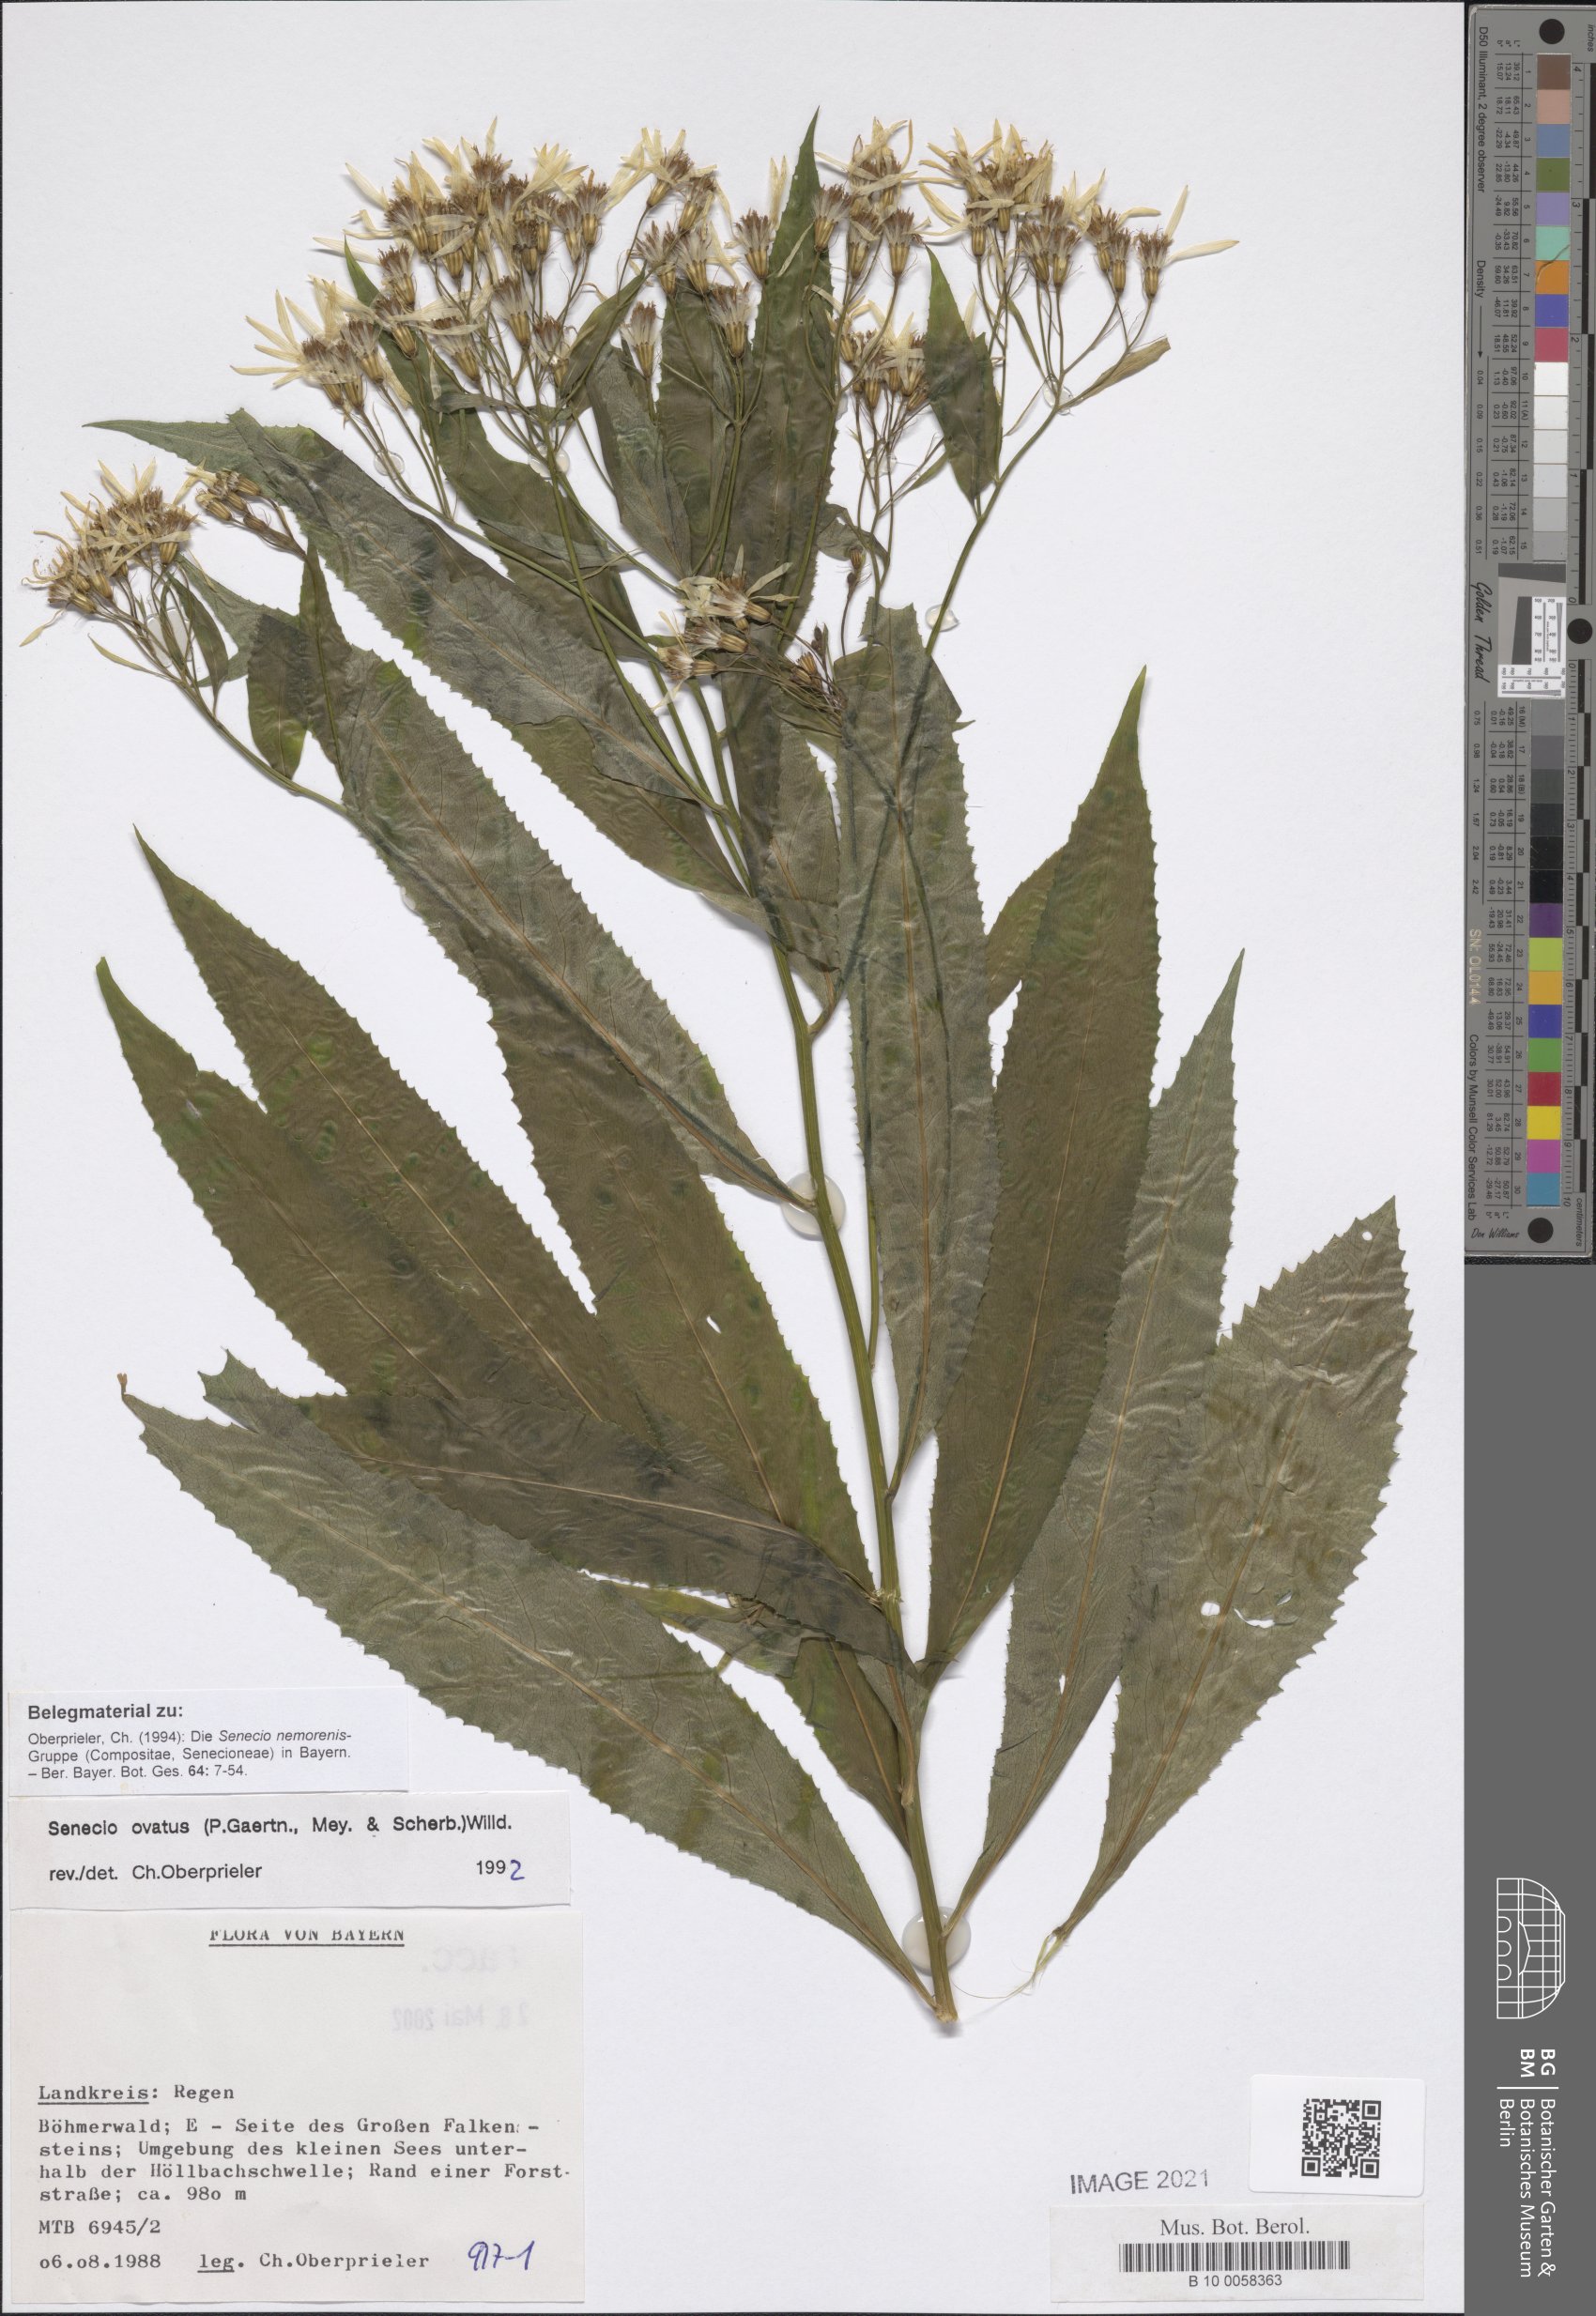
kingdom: Plantae
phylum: Tracheophyta
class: Magnoliopsida
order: Asterales
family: Asteraceae
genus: Senecio
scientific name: Senecio ovatus
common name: Wood ragwort
